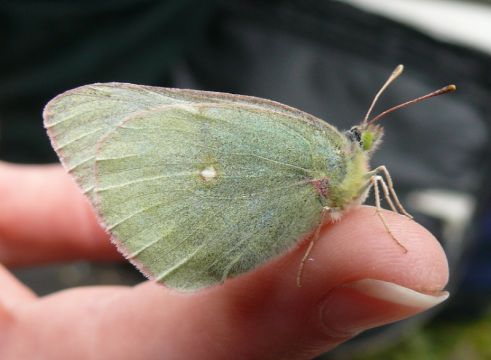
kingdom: Animalia
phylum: Arthropoda
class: Insecta
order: Lepidoptera
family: Pieridae
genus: Colias
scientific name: Colias alexandra
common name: Queen Alexandra's Sulphur
